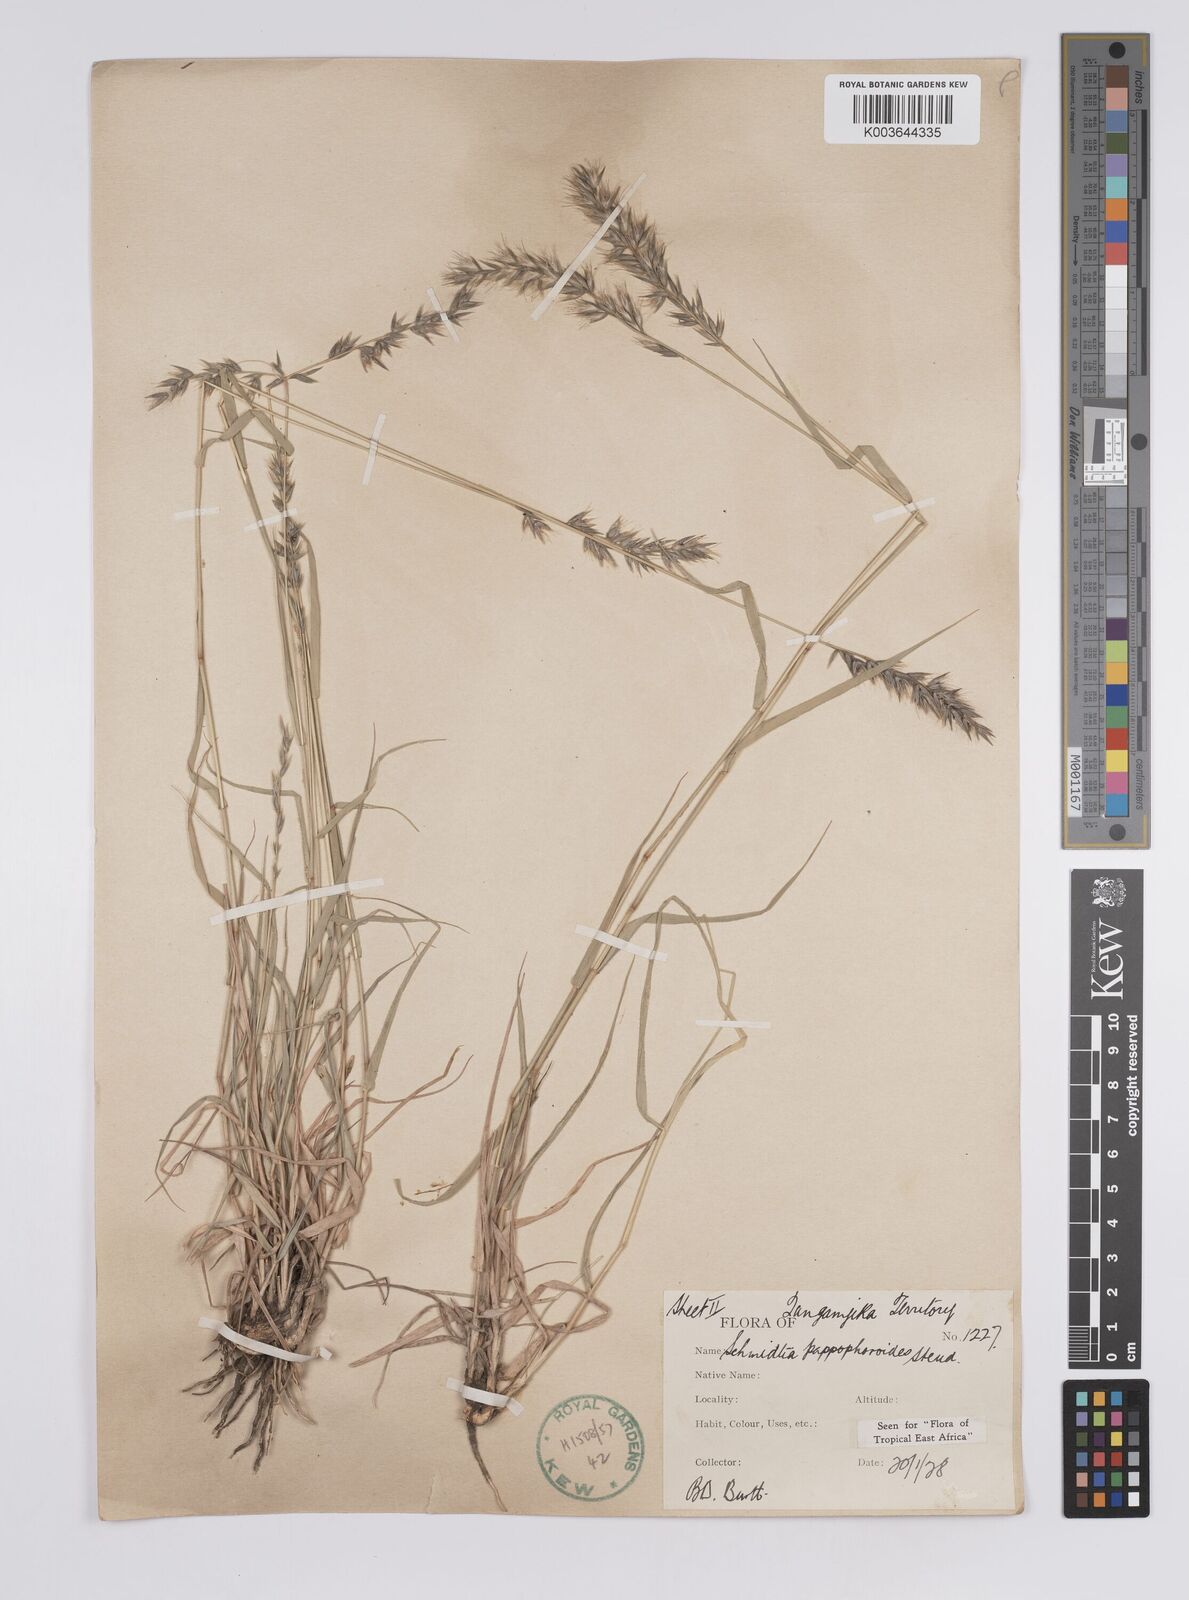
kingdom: Plantae
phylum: Tracheophyta
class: Liliopsida
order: Poales
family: Poaceae
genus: Schmidtia
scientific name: Schmidtia pappophoroides
